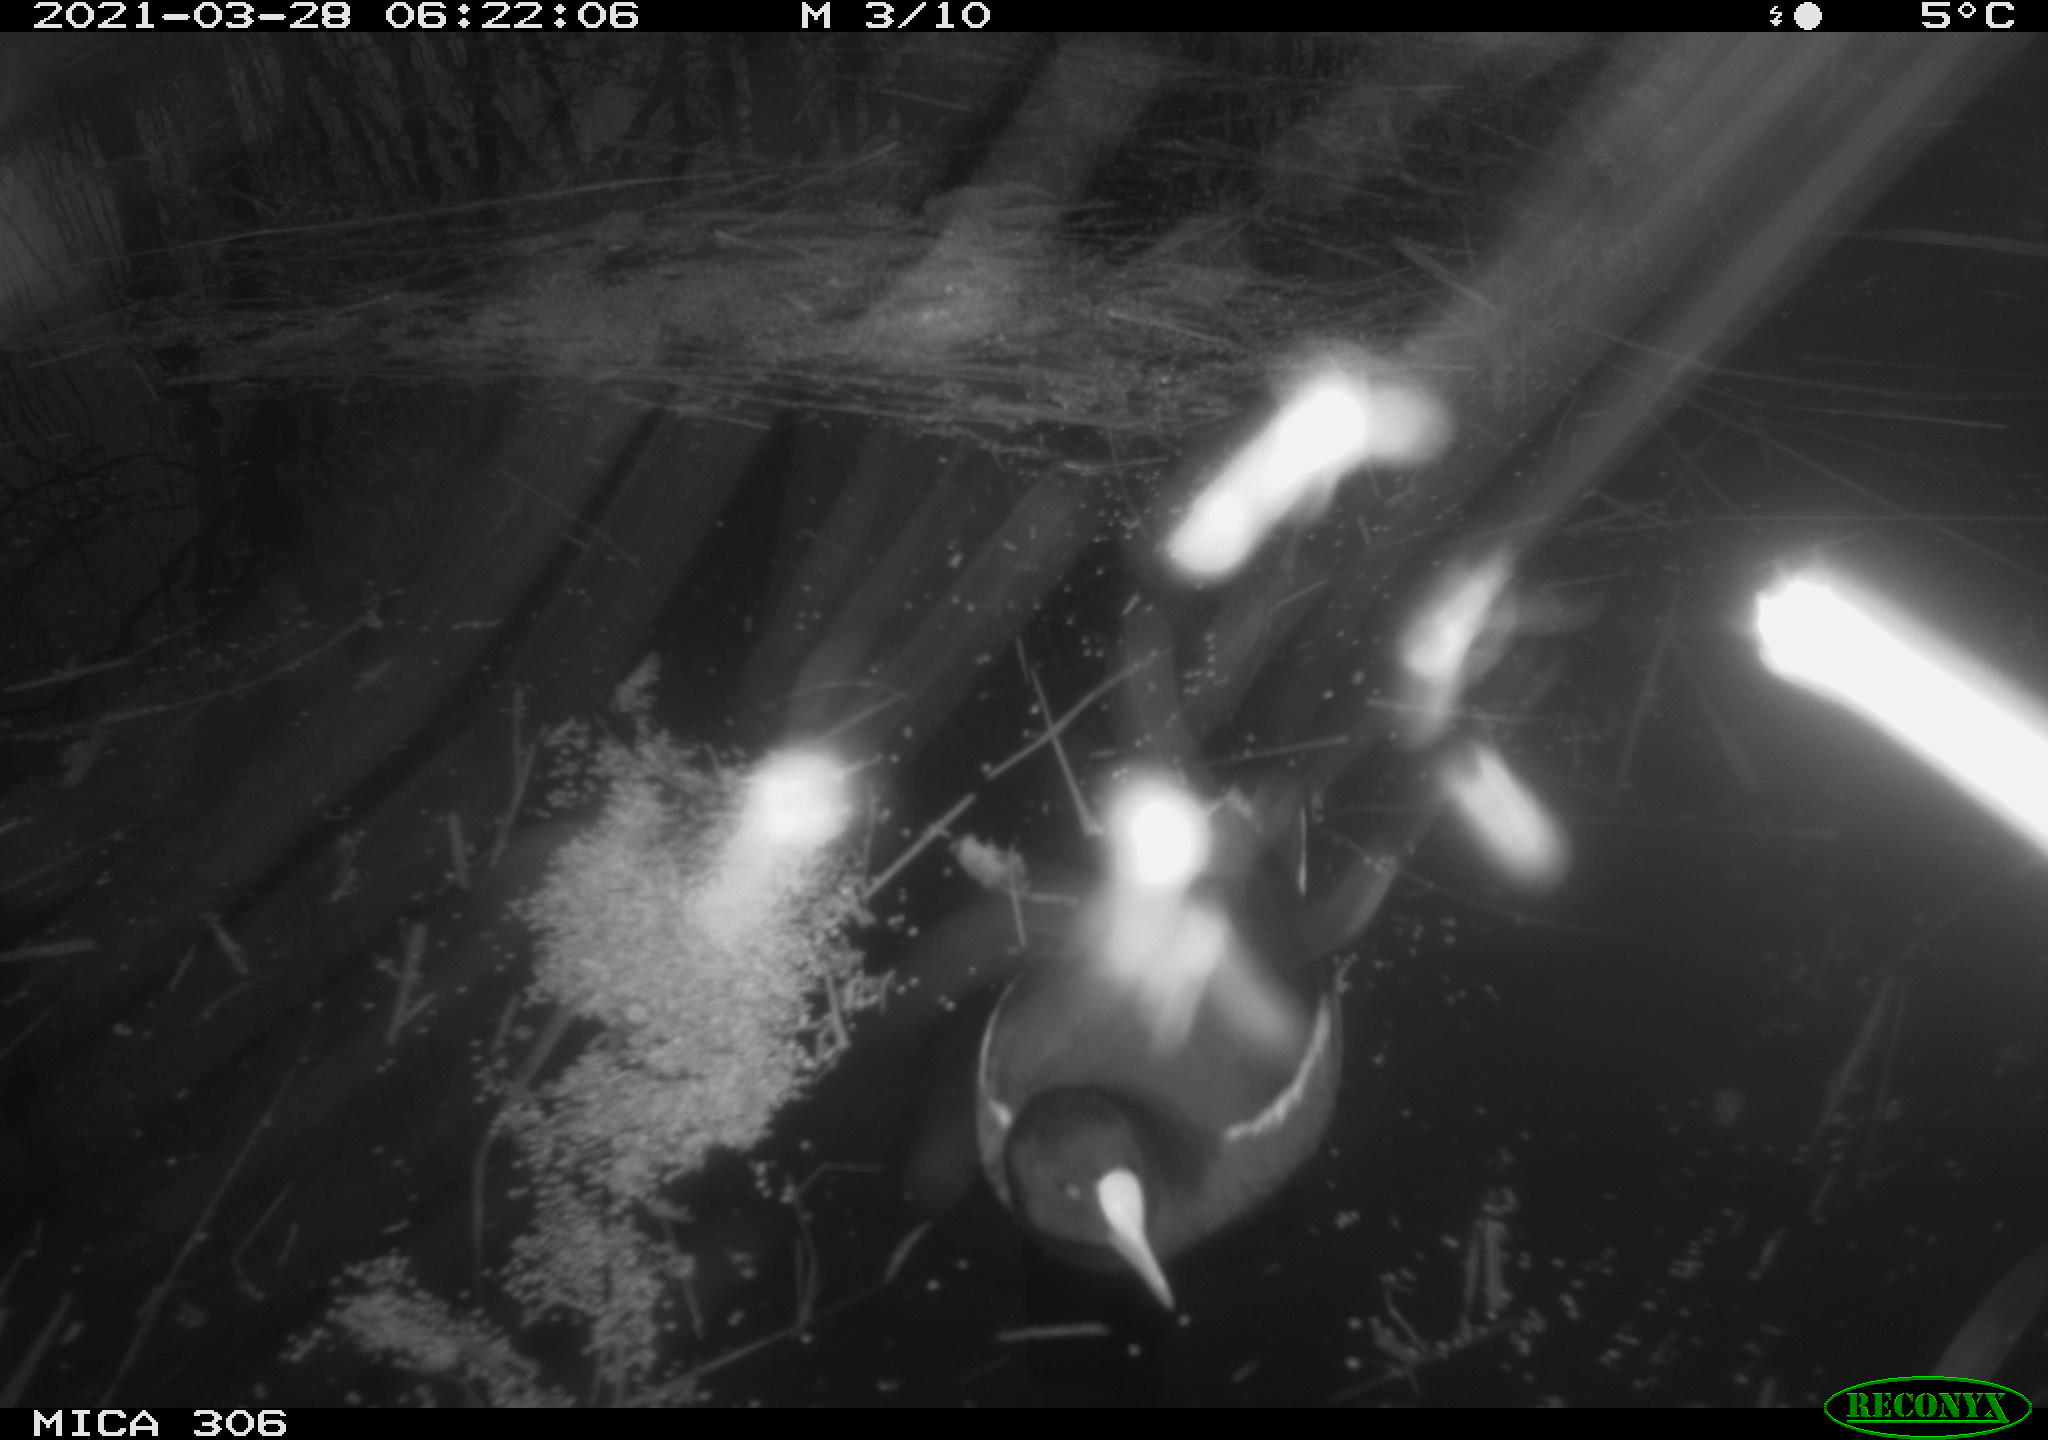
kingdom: Animalia
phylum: Chordata
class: Aves
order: Gruiformes
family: Rallidae
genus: Gallinula
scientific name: Gallinula chloropus
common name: Common moorhen
